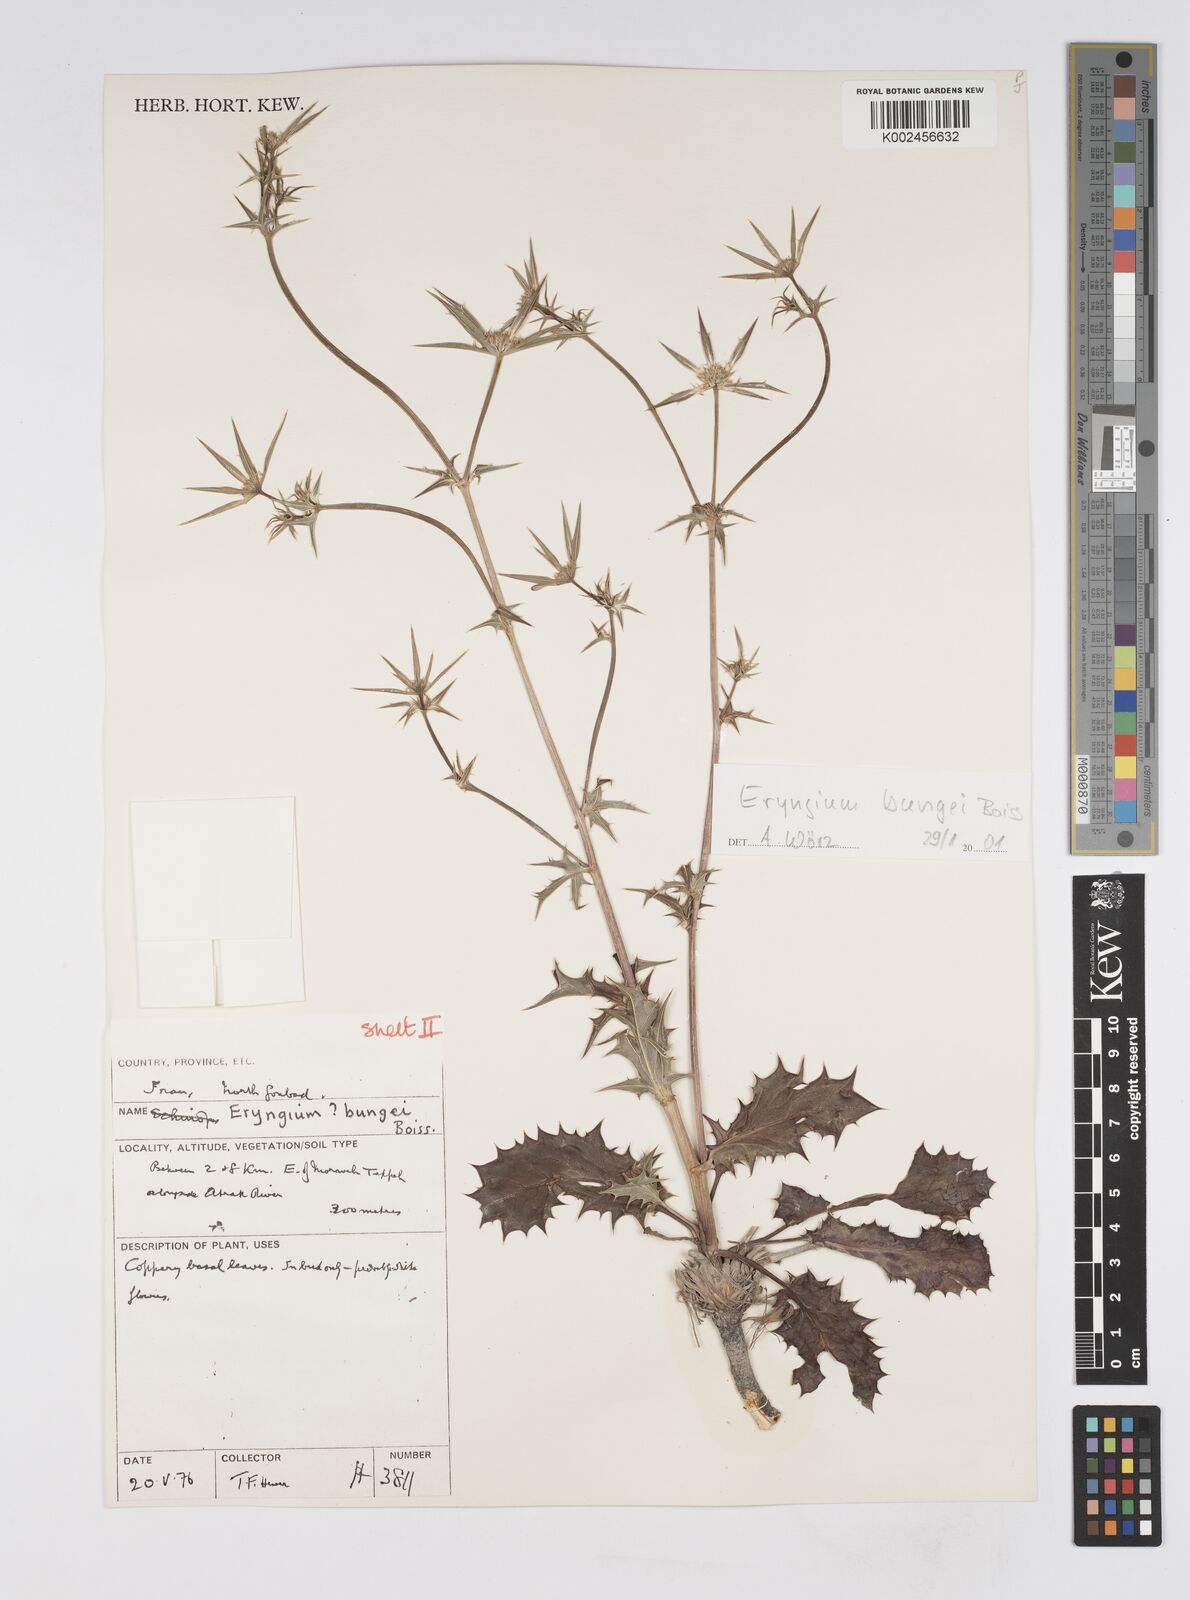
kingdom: Plantae
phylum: Tracheophyta
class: Magnoliopsida
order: Apiales
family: Apiaceae
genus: Eryngium
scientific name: Eryngium bungei
